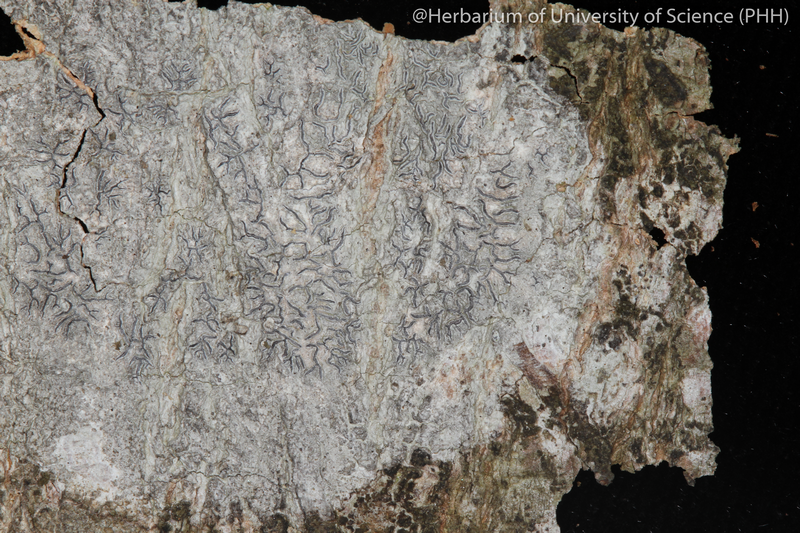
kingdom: Fungi
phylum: Ascomycota
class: Lecanoromycetes
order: Ostropales
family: Graphidaceae
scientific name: Graphidaceae
